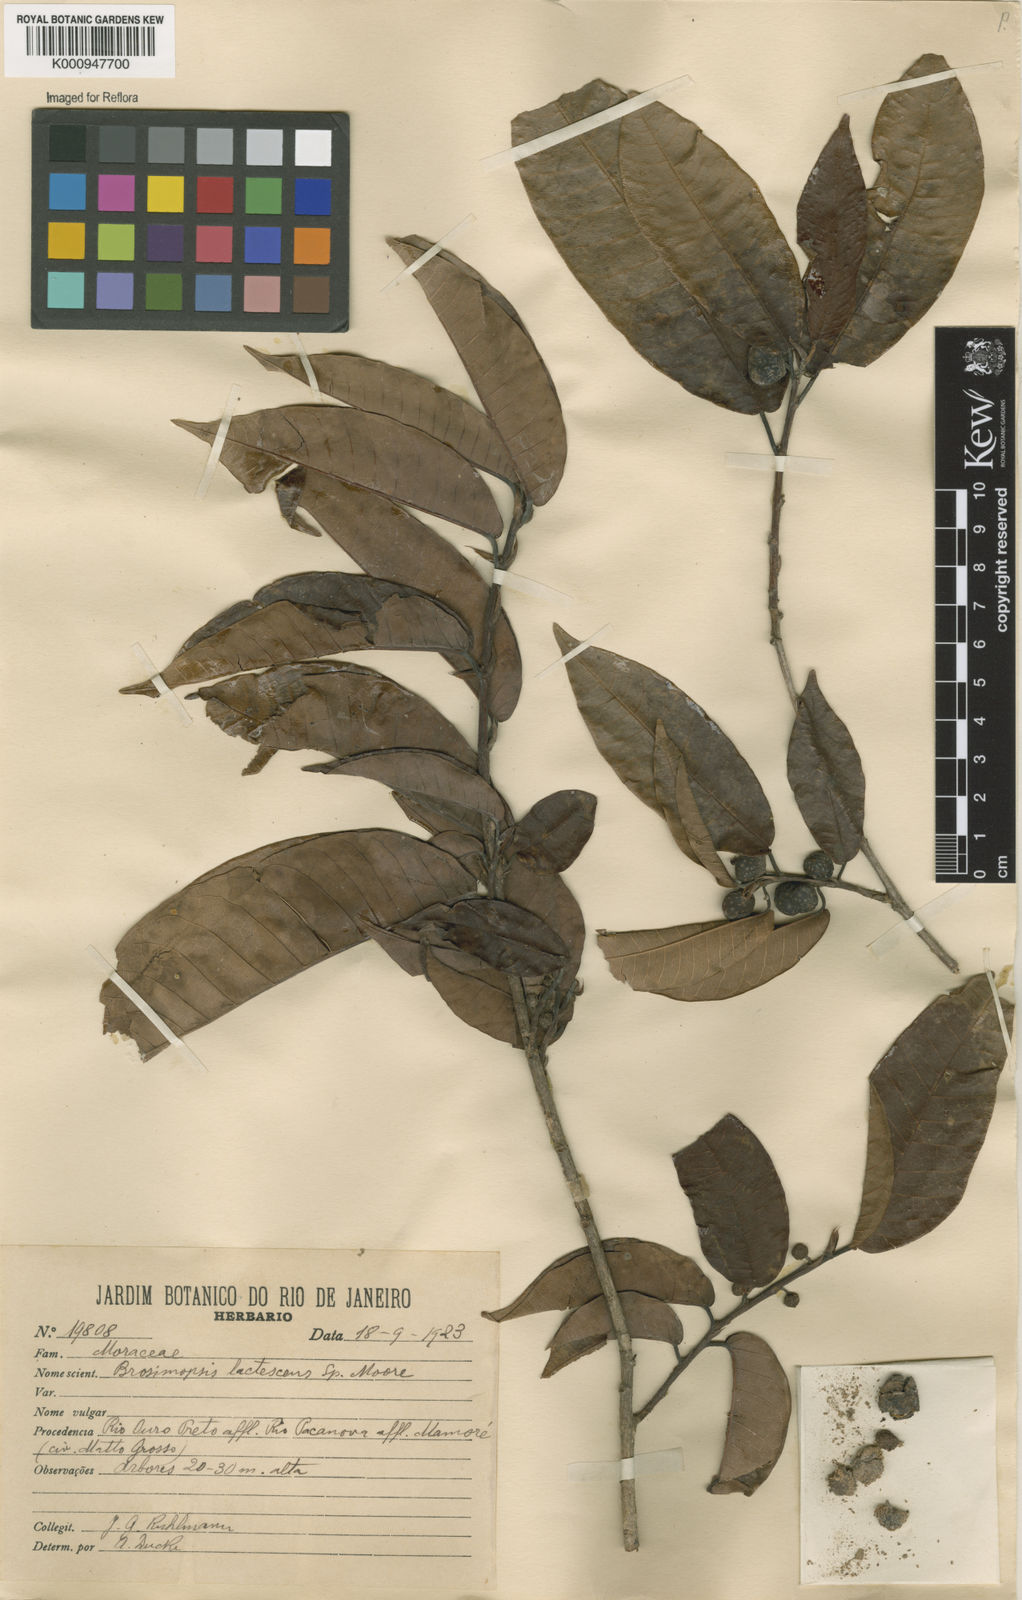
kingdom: Plantae
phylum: Tracheophyta
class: Magnoliopsida
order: Rosales
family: Moraceae
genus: Brosimum
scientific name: Brosimum lactescens
